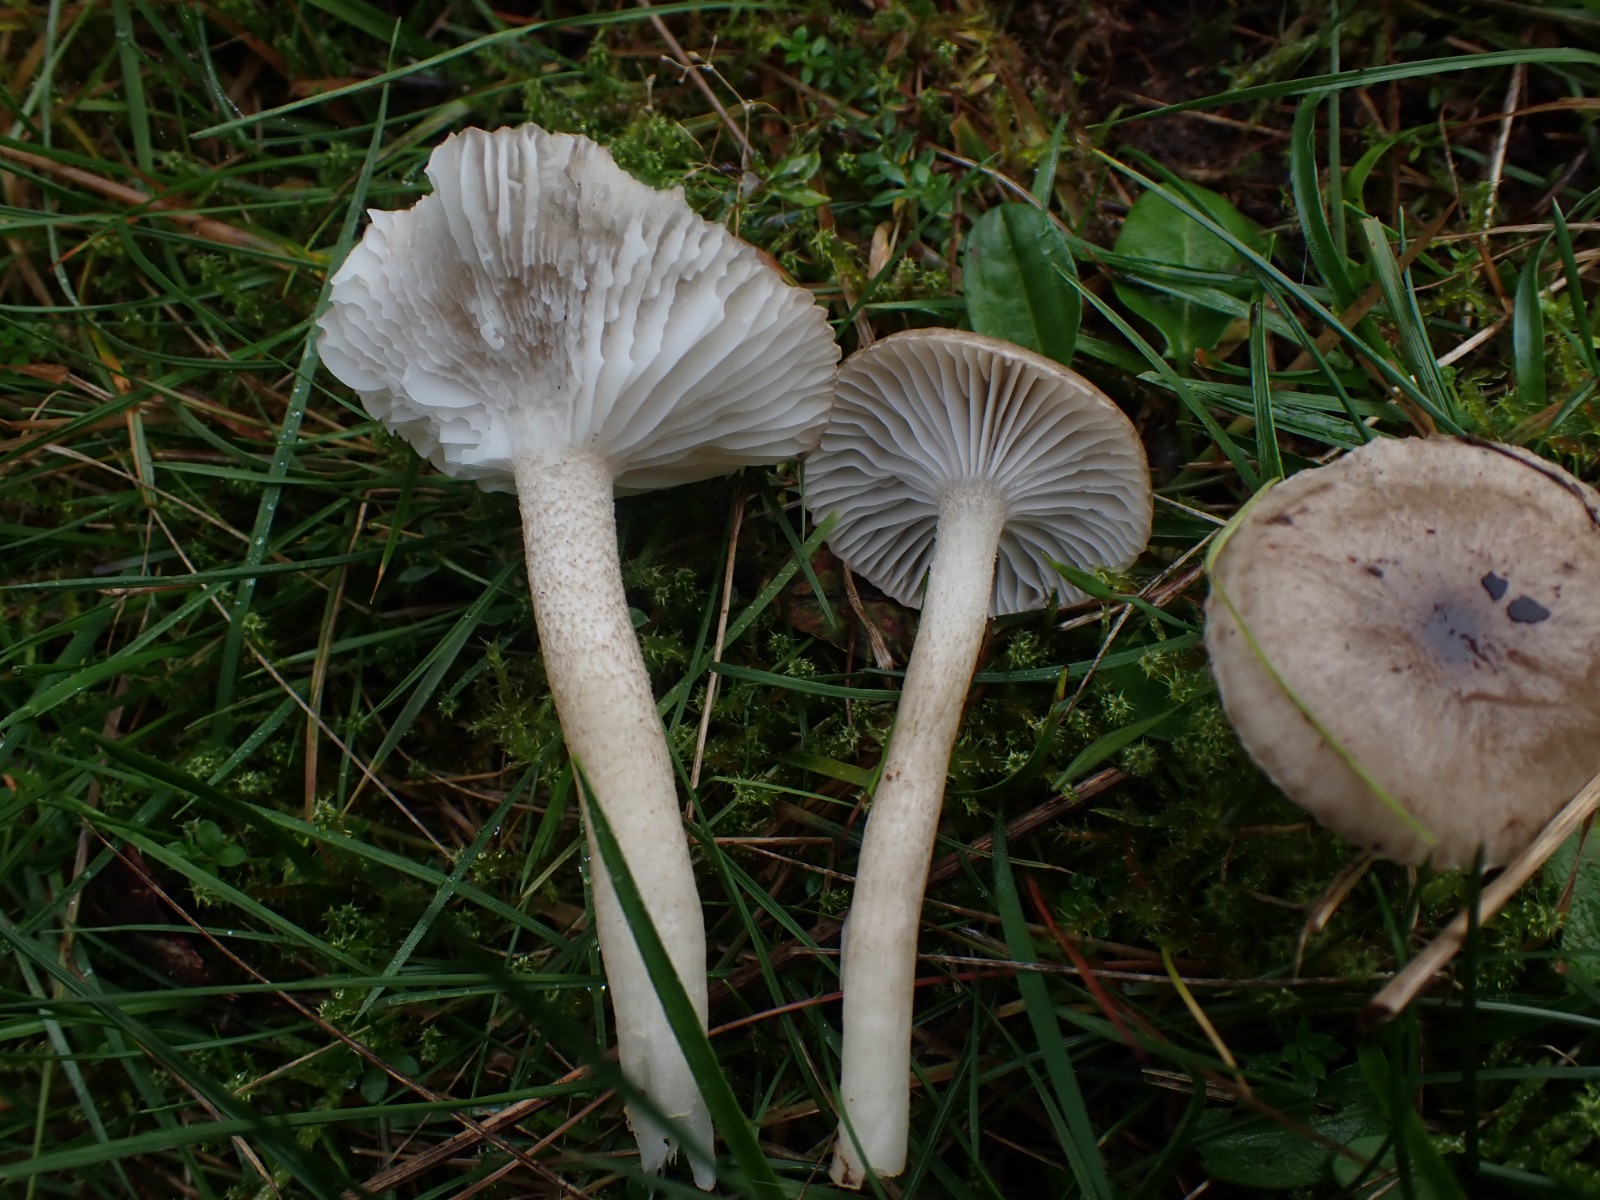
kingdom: Fungi
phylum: Basidiomycota
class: Agaricomycetes
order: Agaricales
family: Hygrophoraceae
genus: Hygrophorus
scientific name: Hygrophorus pustulatus
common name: mørkprikket sneglehat
